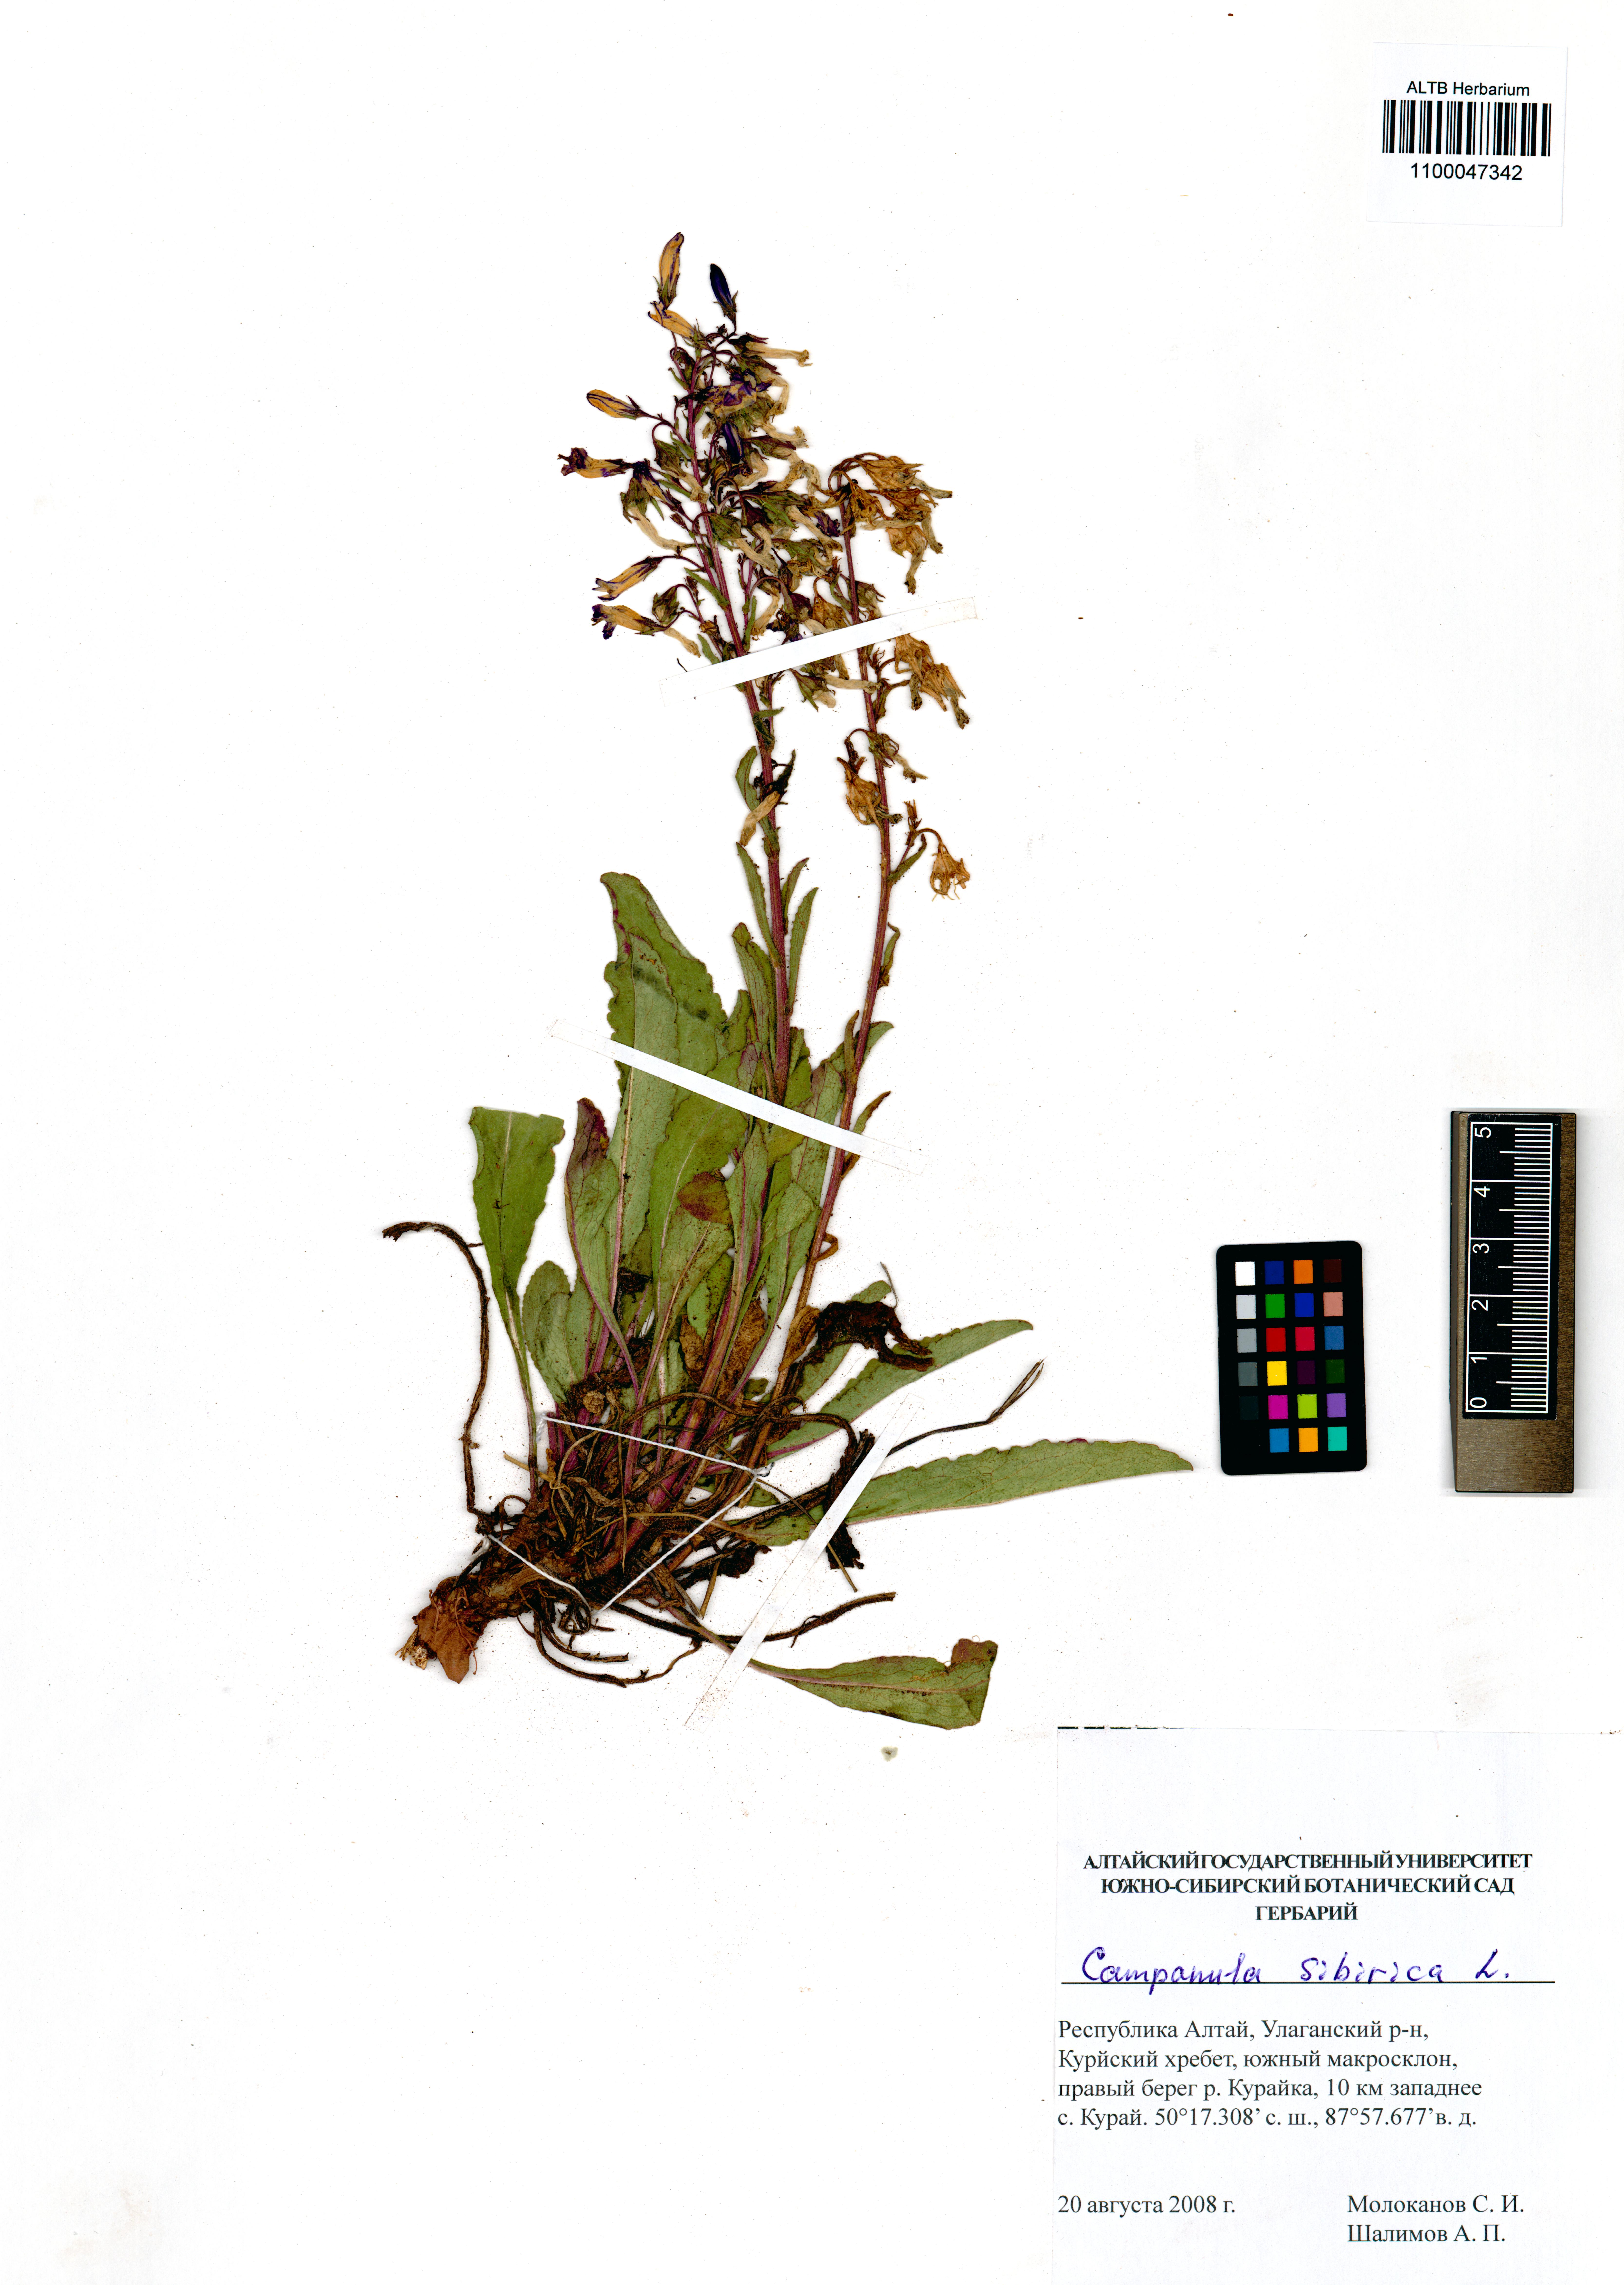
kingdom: Plantae
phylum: Tracheophyta
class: Magnoliopsida
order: Asterales
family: Campanulaceae
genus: Campanula
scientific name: Campanula sibirica
